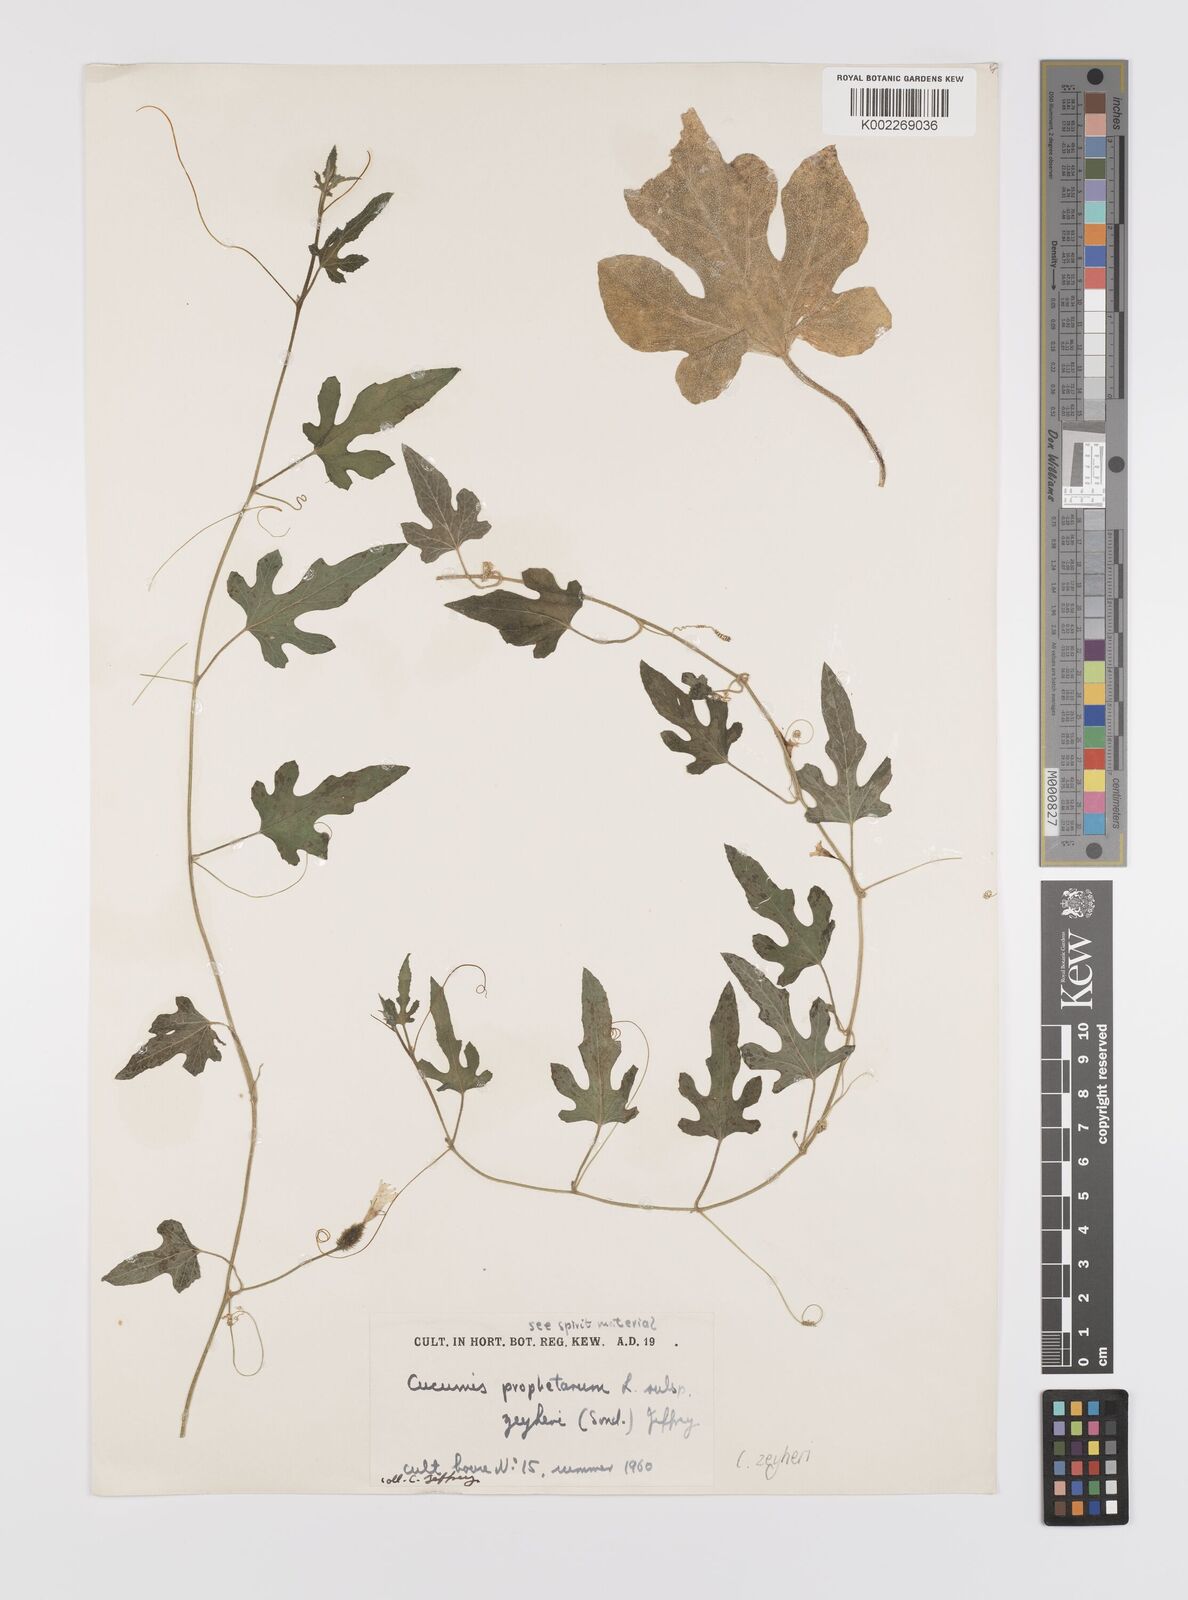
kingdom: Plantae
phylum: Tracheophyta
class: Magnoliopsida
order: Cucurbitales
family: Cucurbitaceae
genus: Cucumis
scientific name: Cucumis sativus
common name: Cucumber
